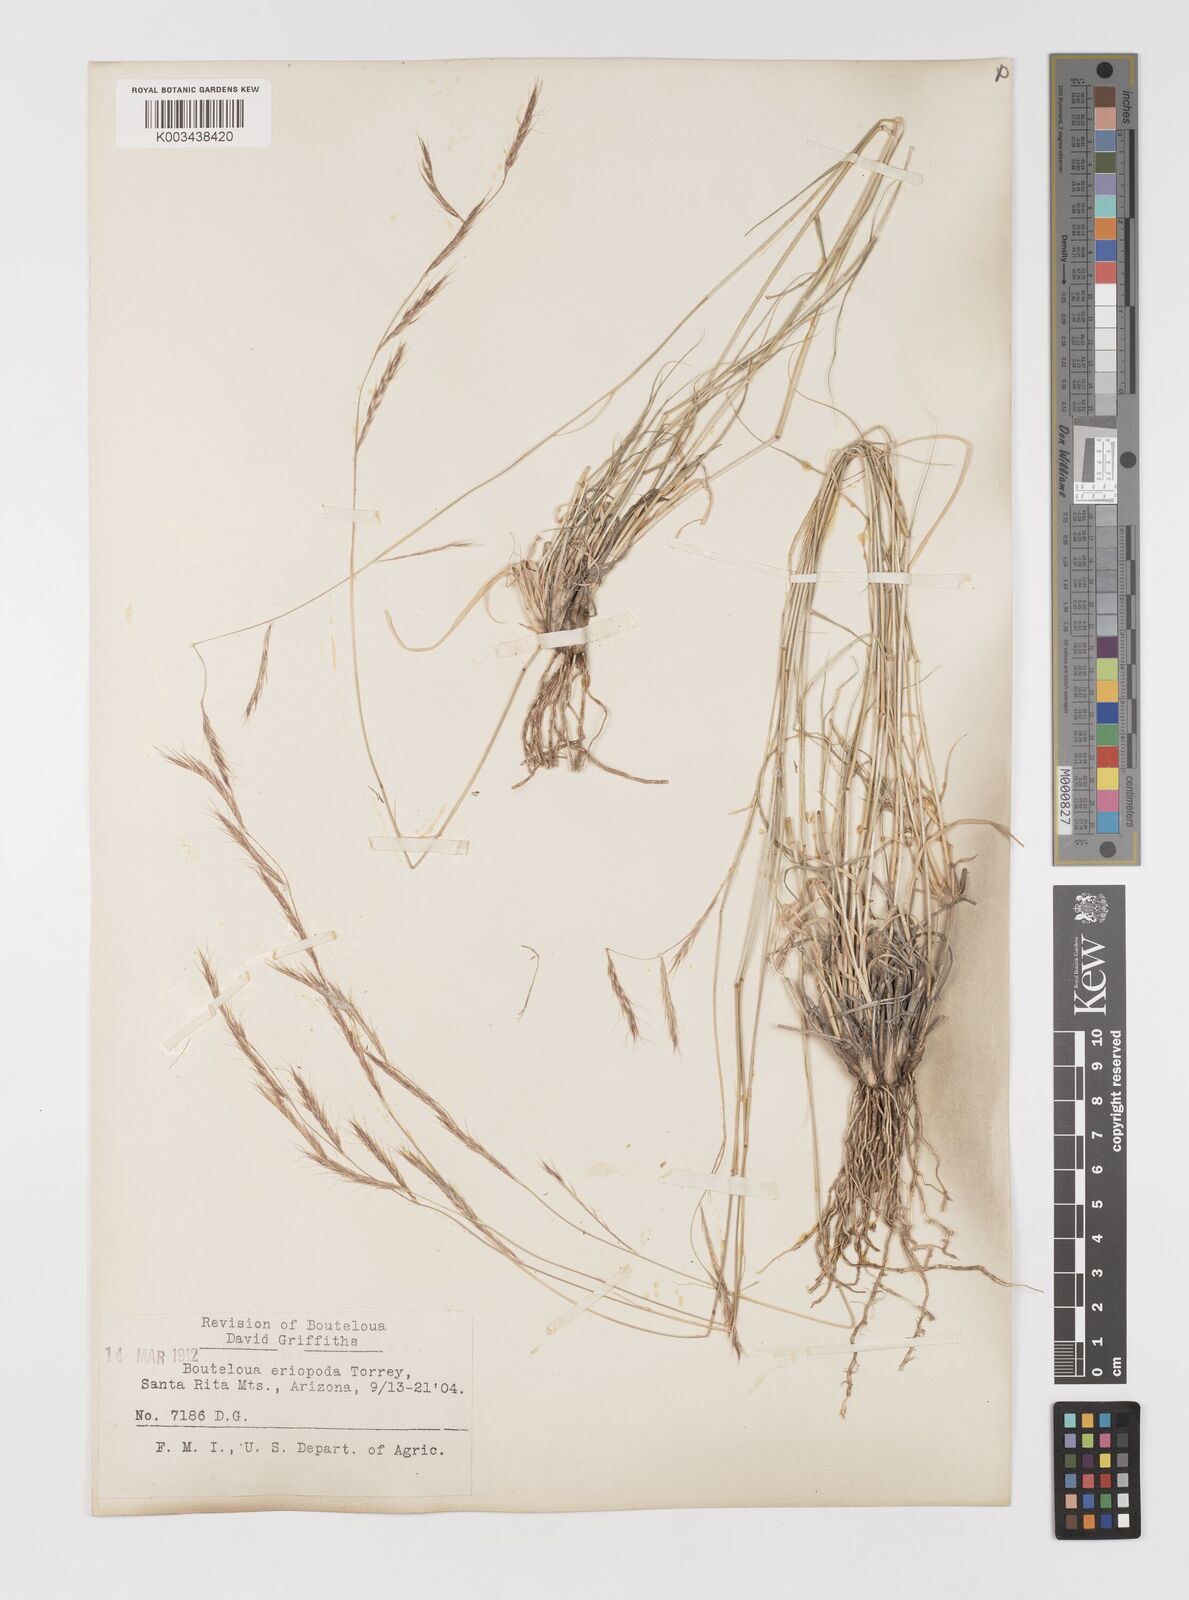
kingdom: Plantae
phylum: Tracheophyta
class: Liliopsida
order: Poales
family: Poaceae
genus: Bouteloua
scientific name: Bouteloua eriopoda
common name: Woolly foot grama
